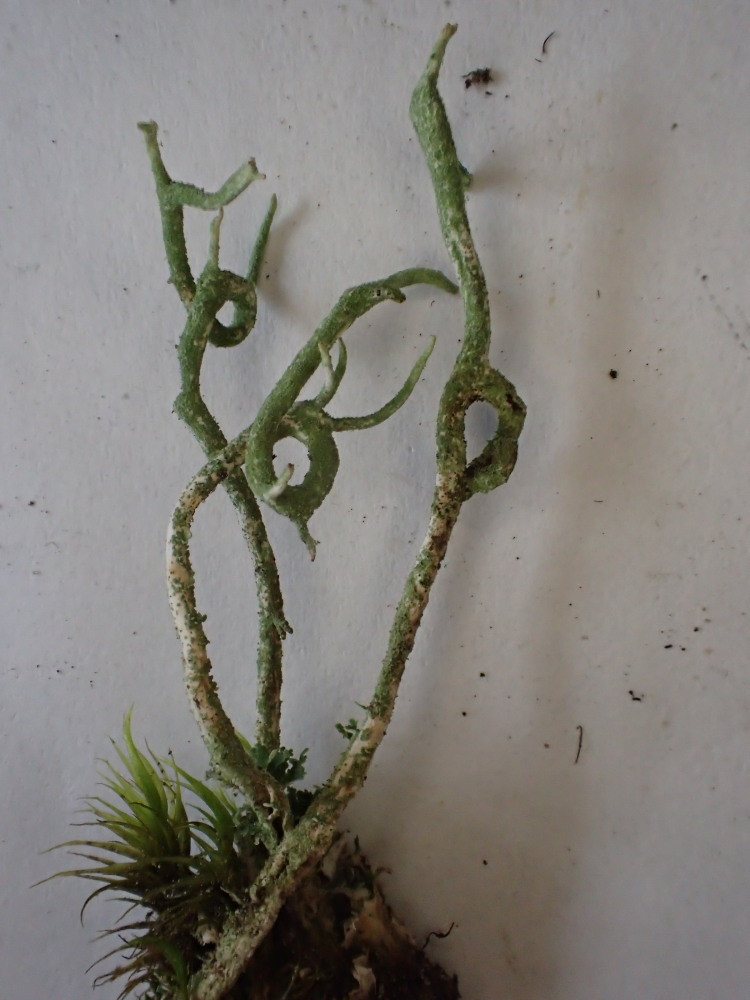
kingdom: Fungi
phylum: Ascomycota
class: Lecanoromycetes
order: Lecanorales
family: Cladoniaceae
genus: Cladonia
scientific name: Cladonia subulata
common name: spids bægerlav
